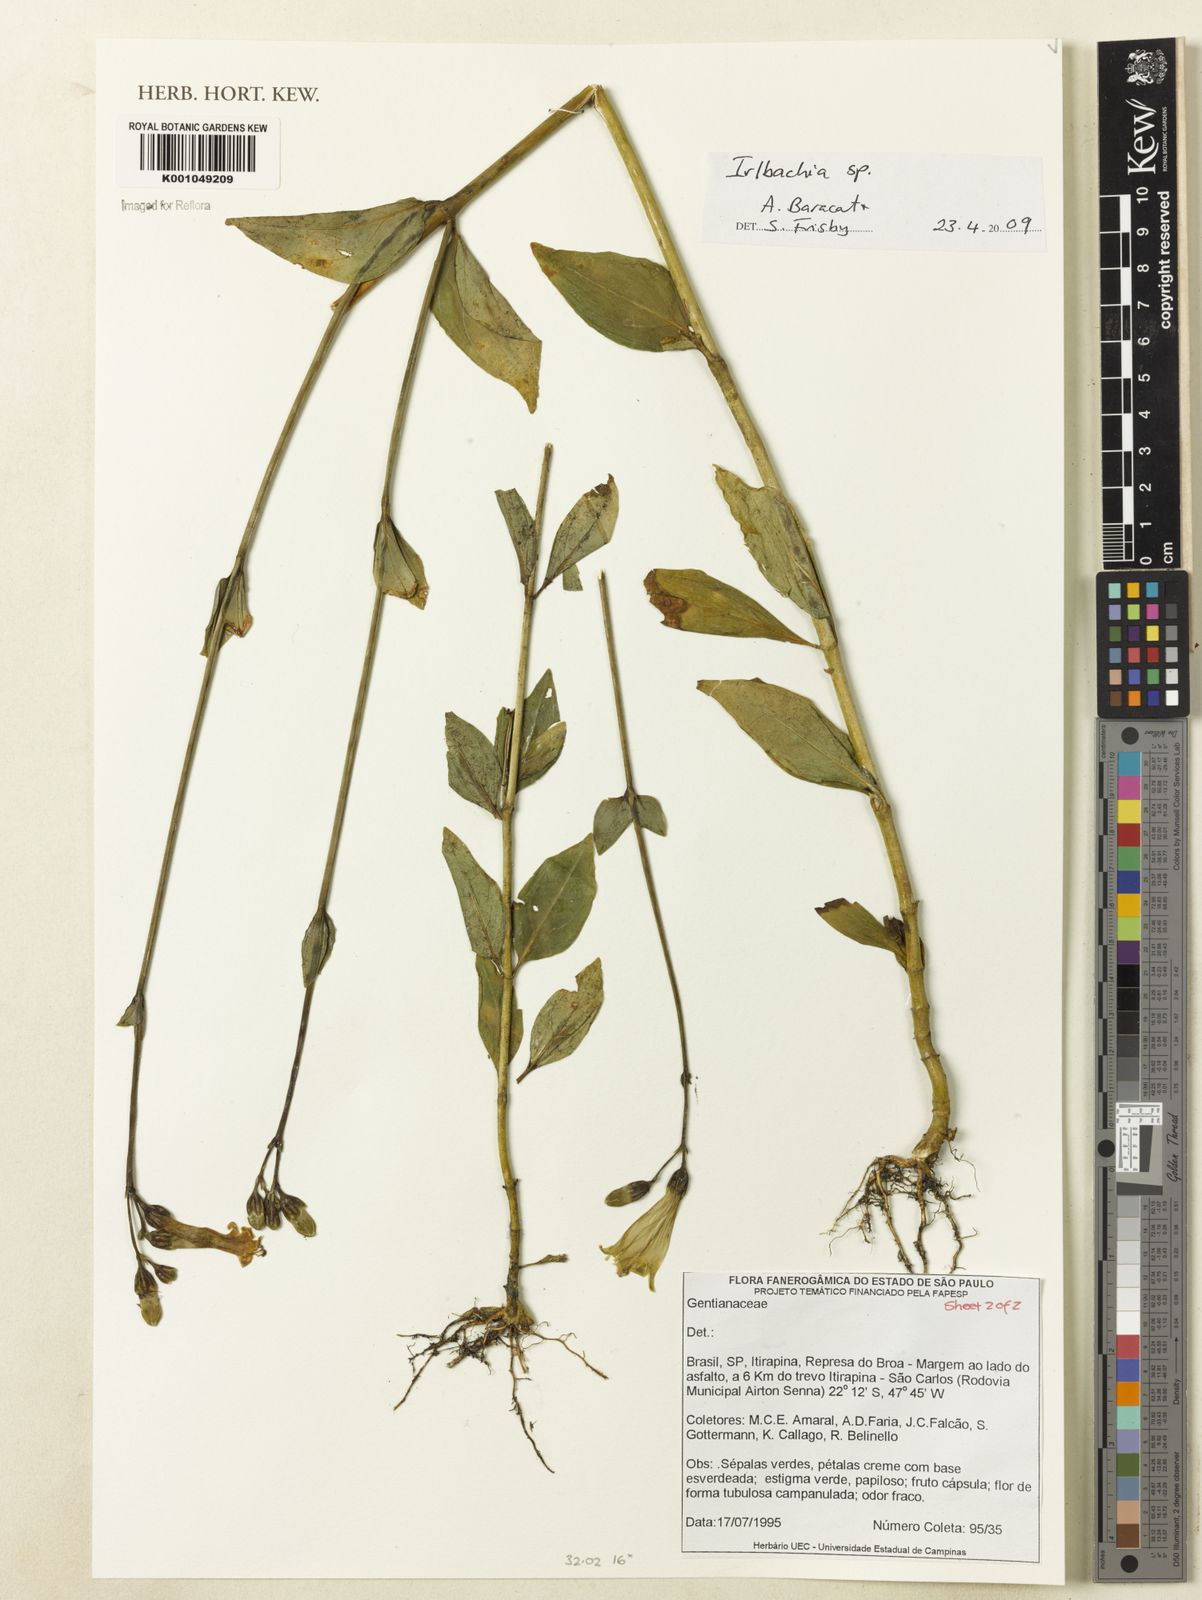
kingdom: Plantae
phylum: Tracheophyta
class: Magnoliopsida
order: Gentianales
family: Gentianaceae
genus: Irlbachia
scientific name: Irlbachia
